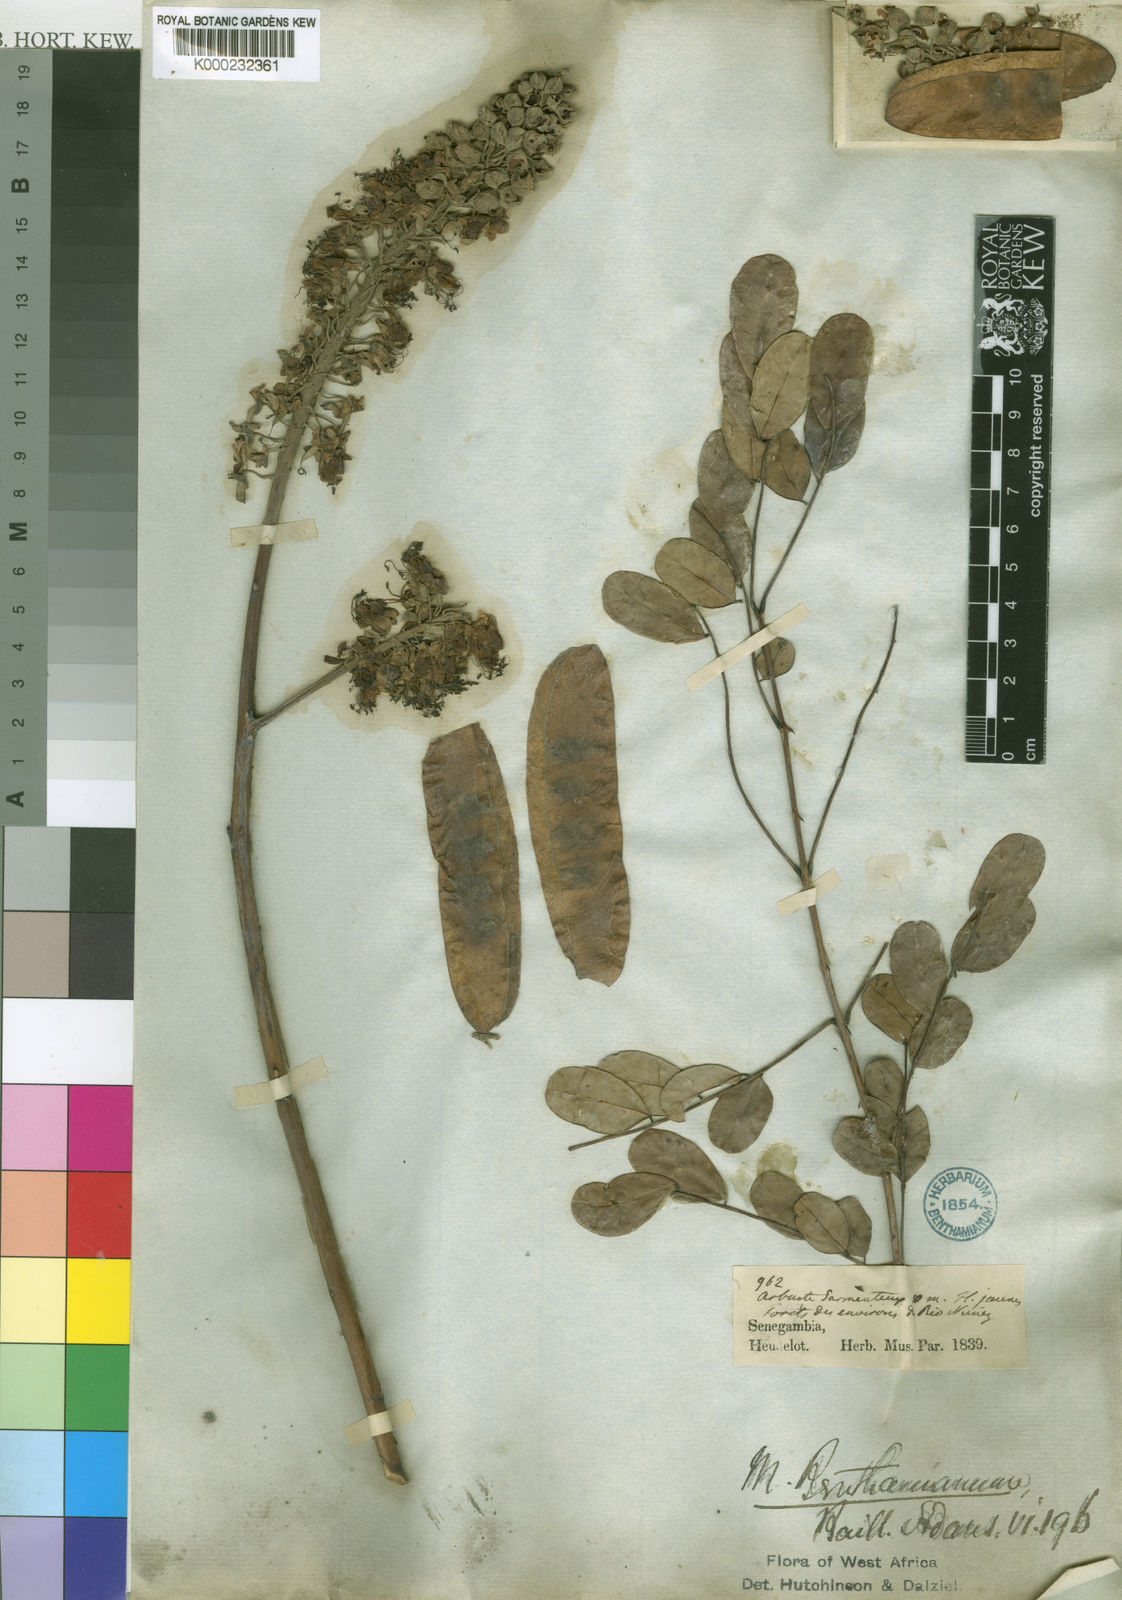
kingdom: Plantae
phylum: Tracheophyta
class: Magnoliopsida
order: Fabales
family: Fabaceae
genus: Mezoneuron
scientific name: Mezoneuron benthamianum
